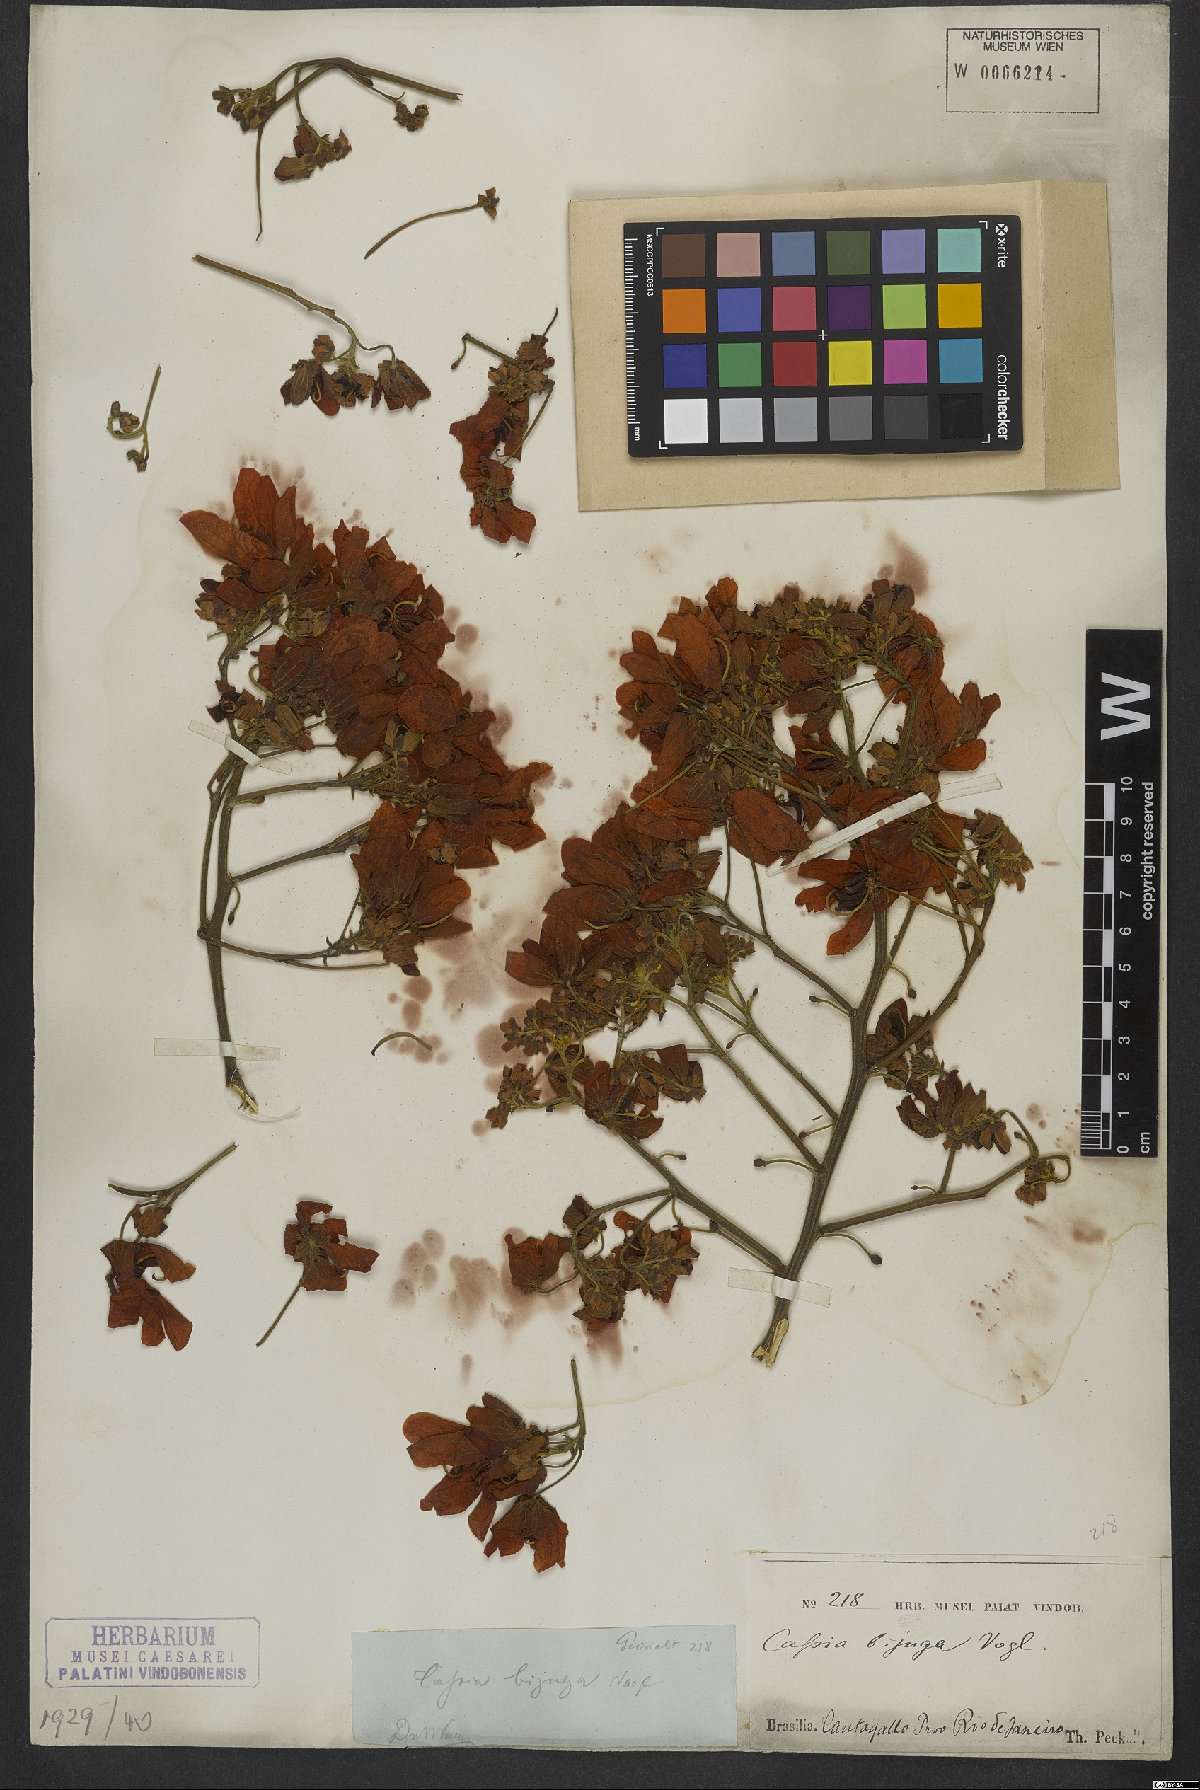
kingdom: Plantae
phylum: Tracheophyta
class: Magnoliopsida
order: Fabales
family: Fabaceae
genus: Senna
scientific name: Senna macranthera
